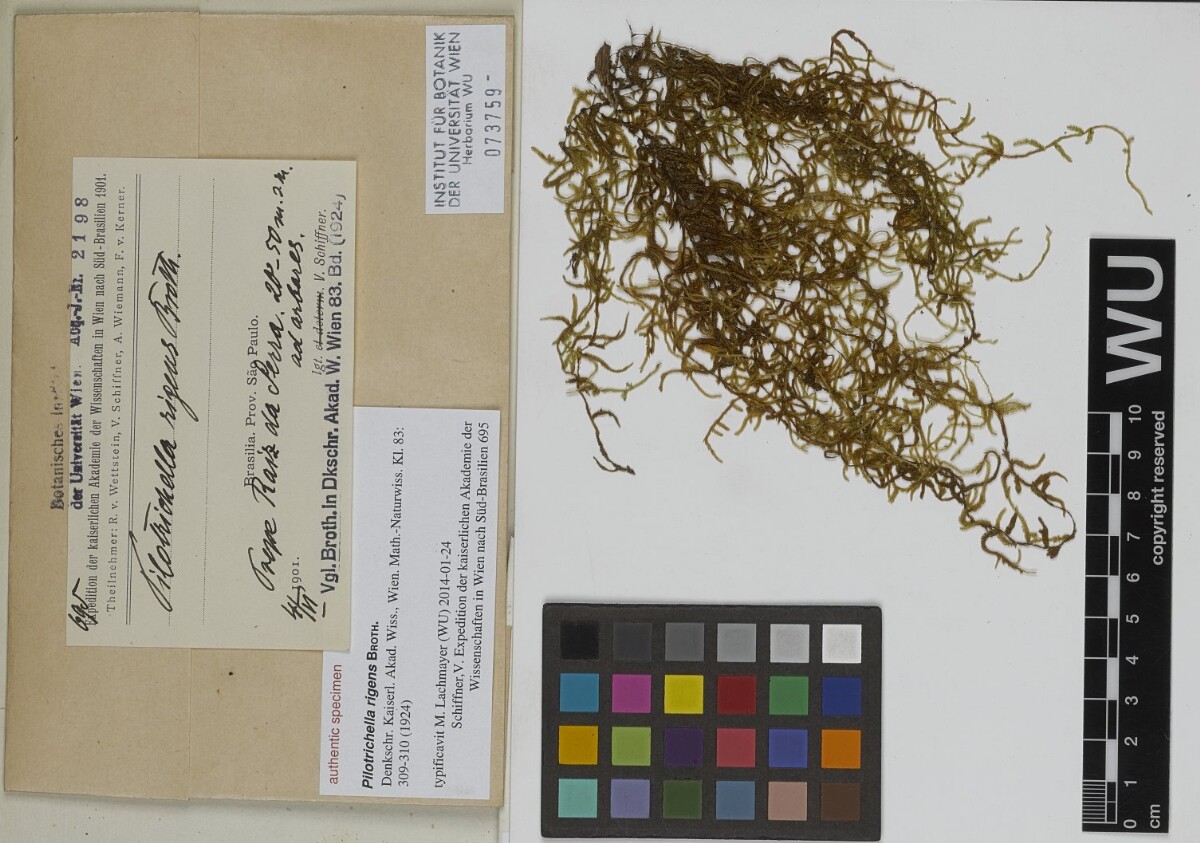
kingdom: Plantae
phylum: Bryophyta
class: Bryopsida
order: Hypnales
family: Orthostichellaceae
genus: Orthostichella
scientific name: Orthostichella pachygastrella
